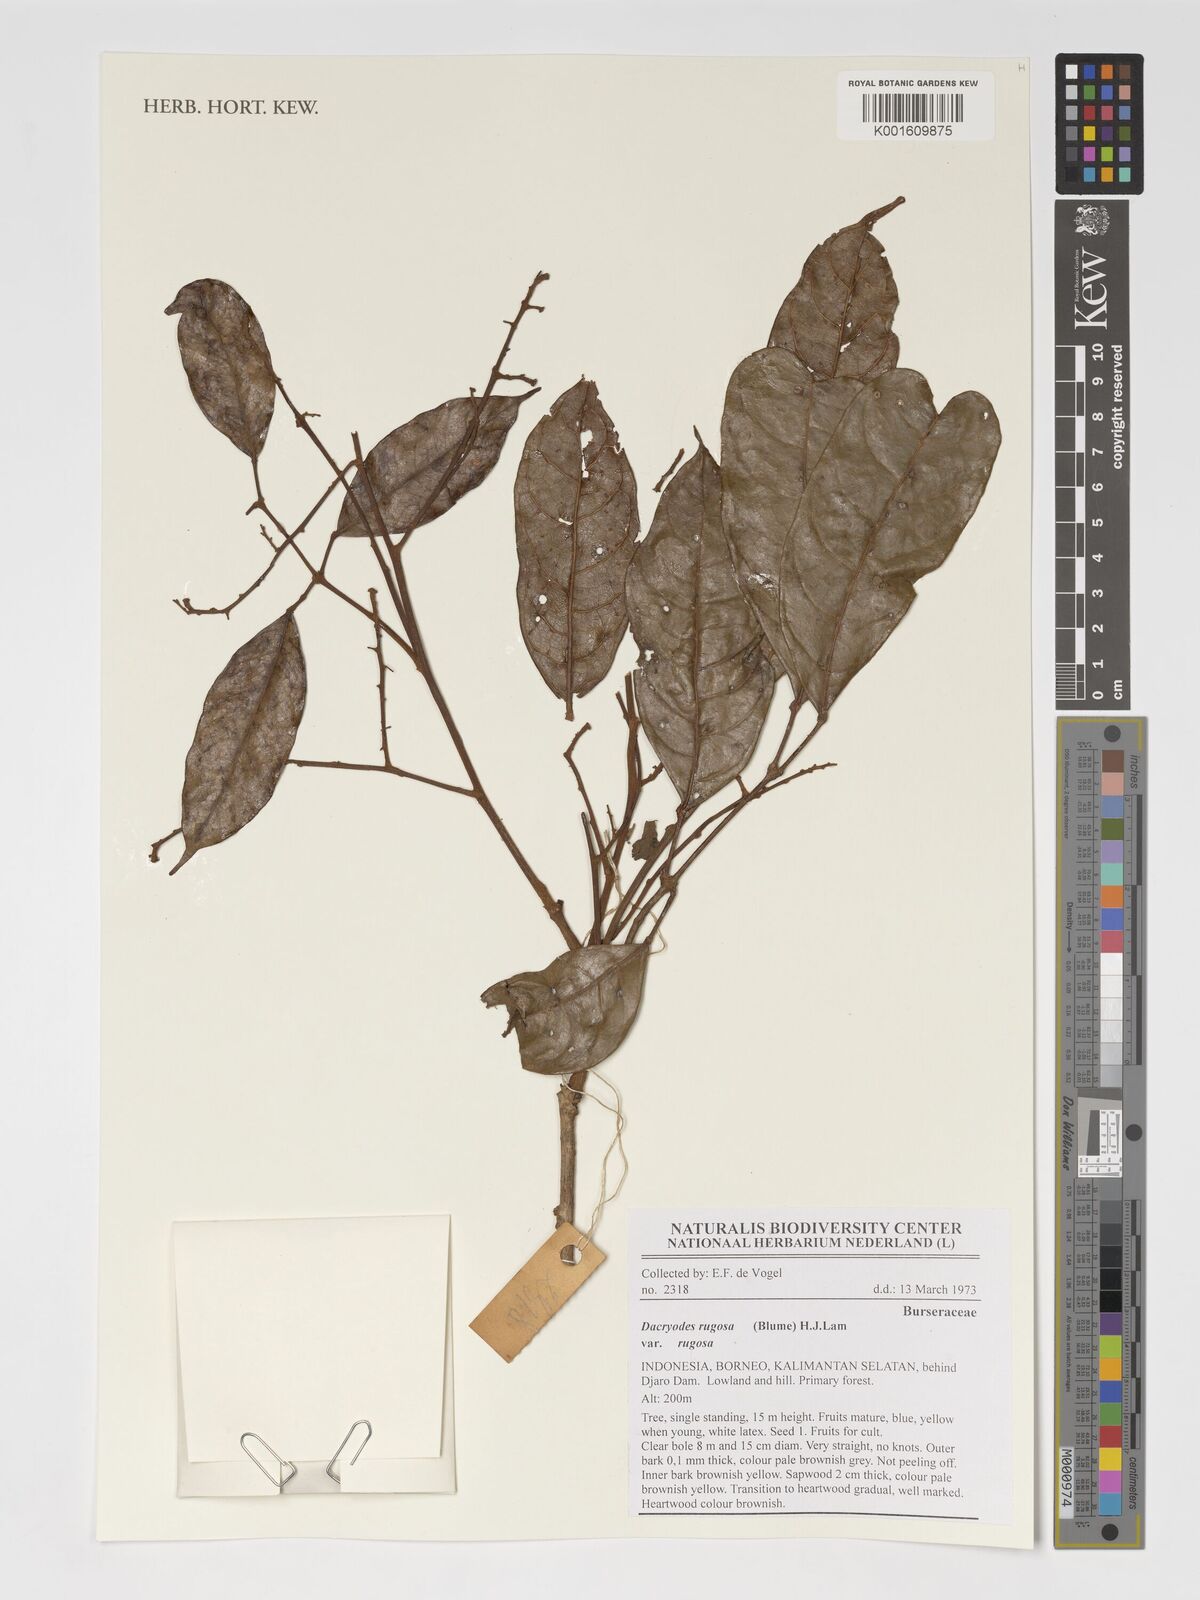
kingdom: Plantae
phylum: Tracheophyta
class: Magnoliopsida
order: Sapindales
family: Burseraceae
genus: Dacryodes
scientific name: Dacryodes rugosa
